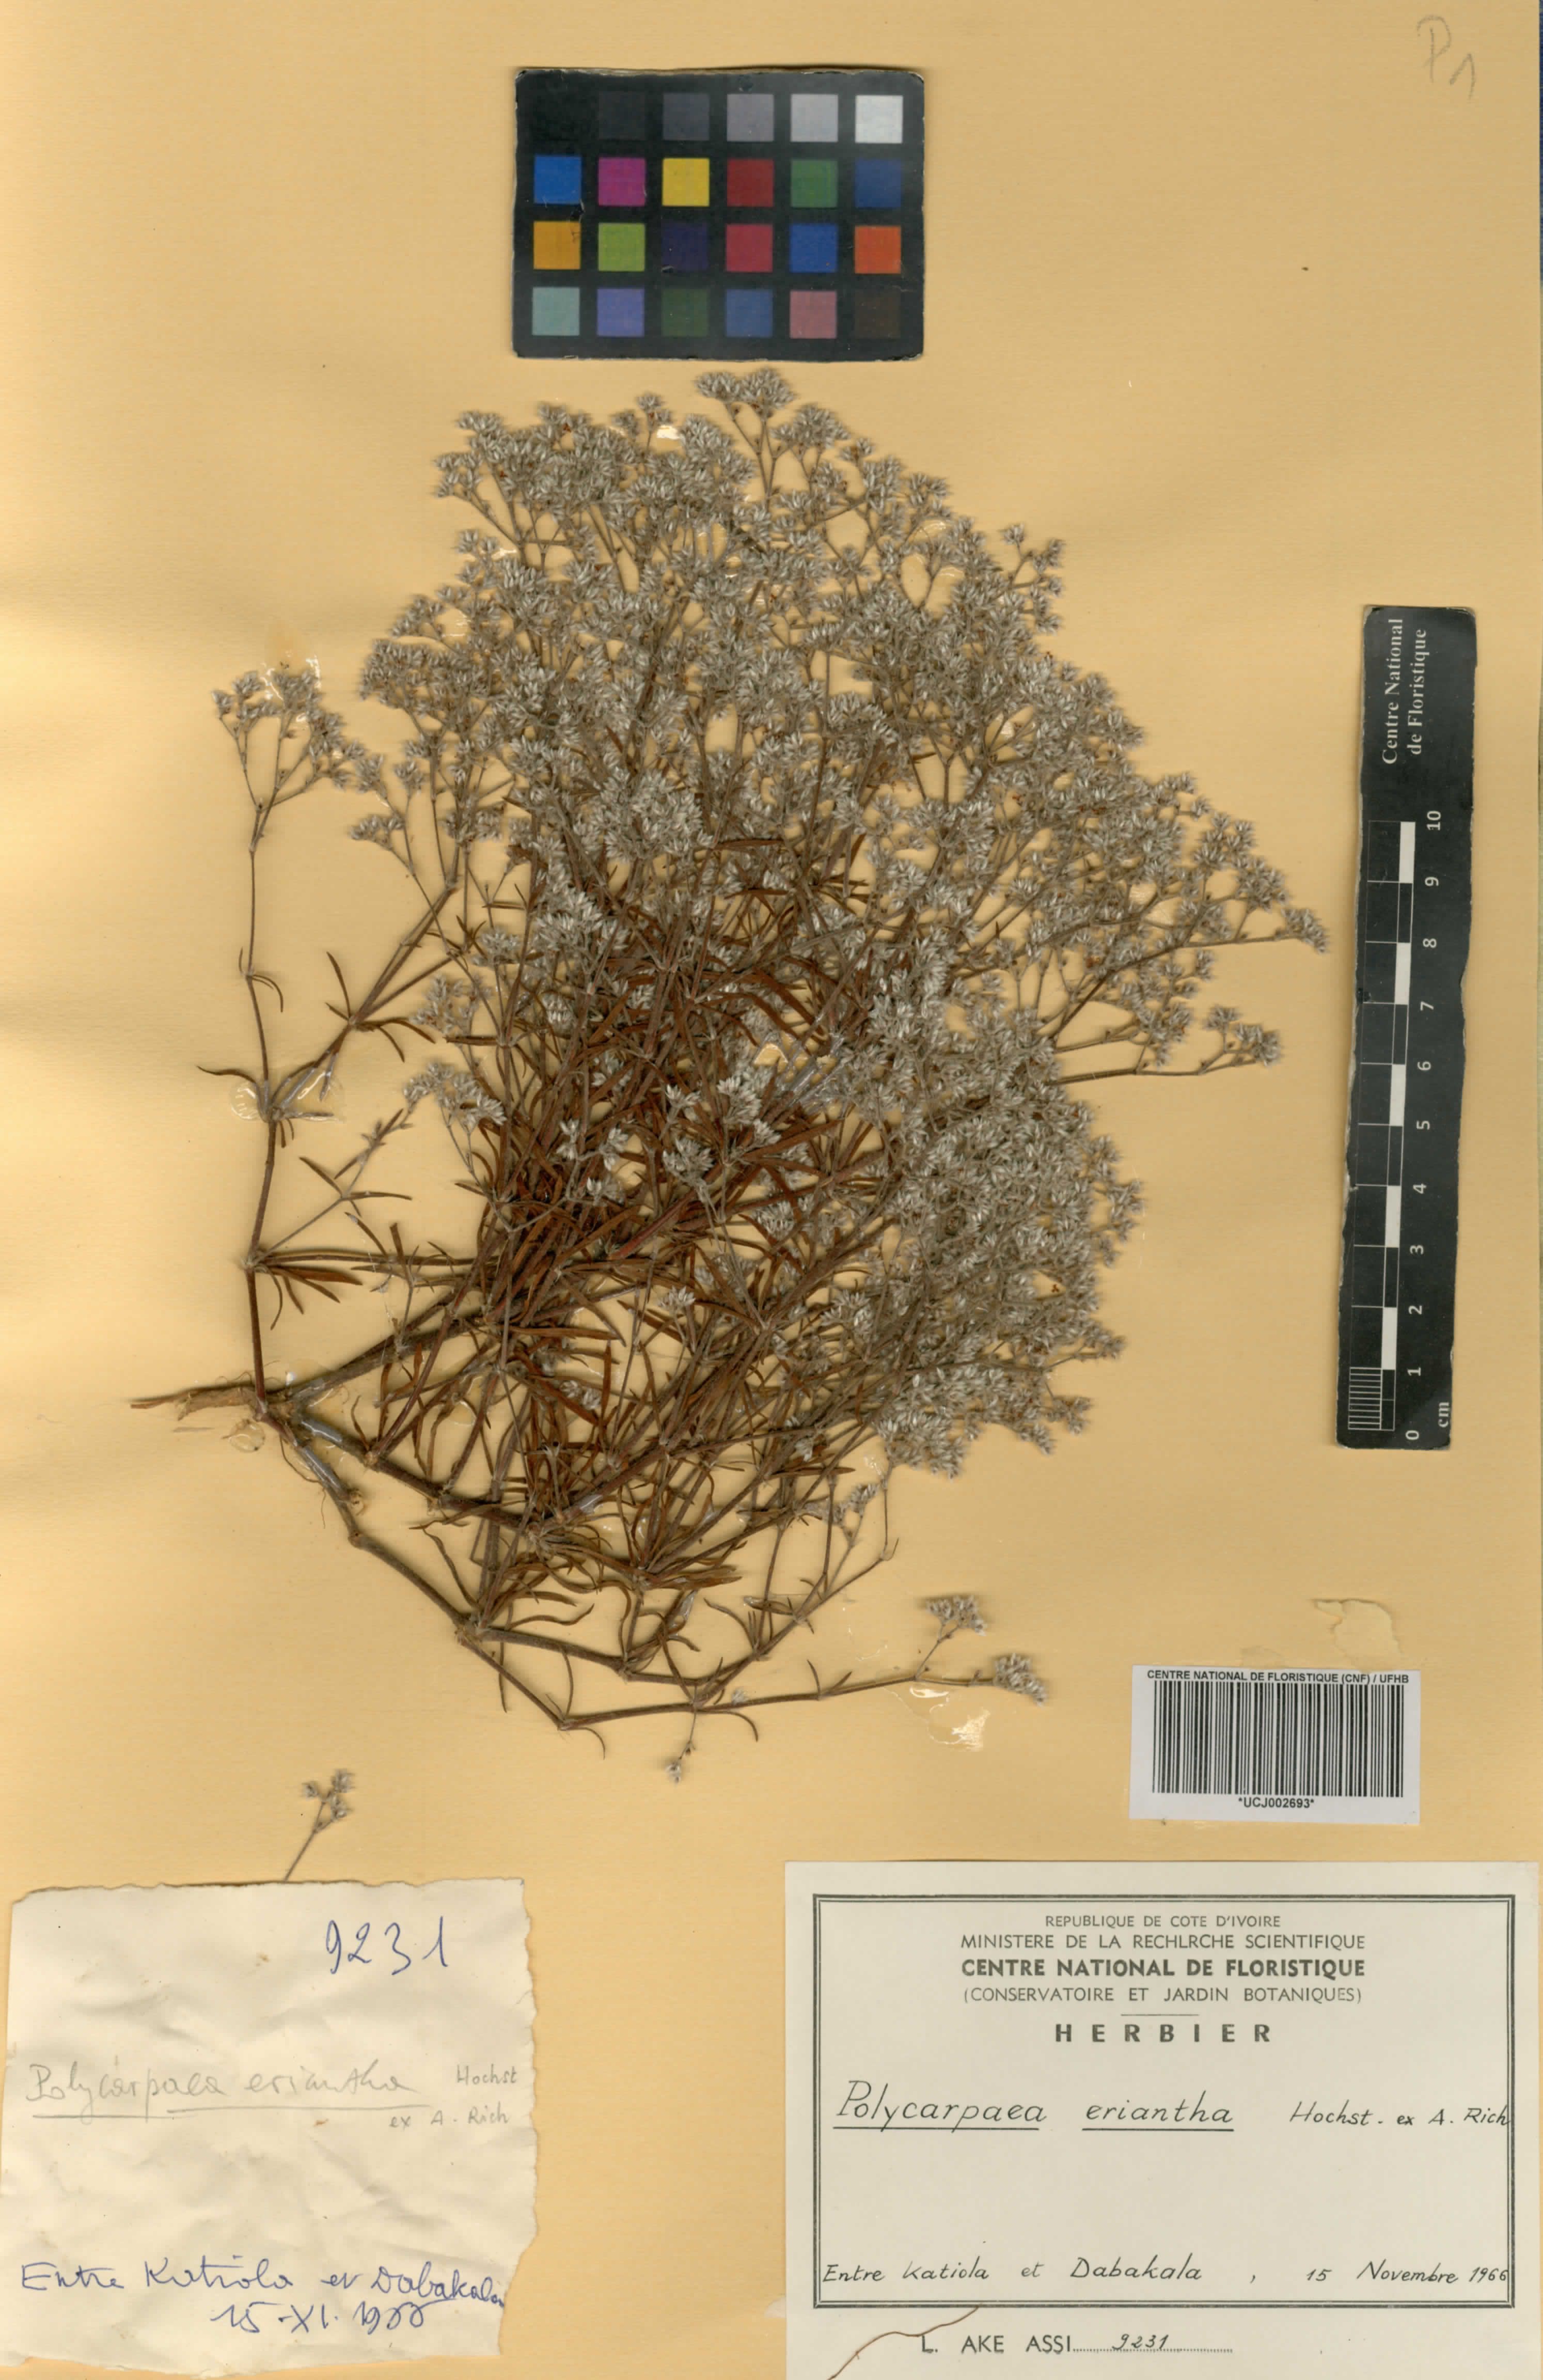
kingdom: Plantae
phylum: Tracheophyta
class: Magnoliopsida
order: Caryophyllales
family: Caryophyllaceae
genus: Polycarpaea
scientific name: Polycarpaea eriantha
